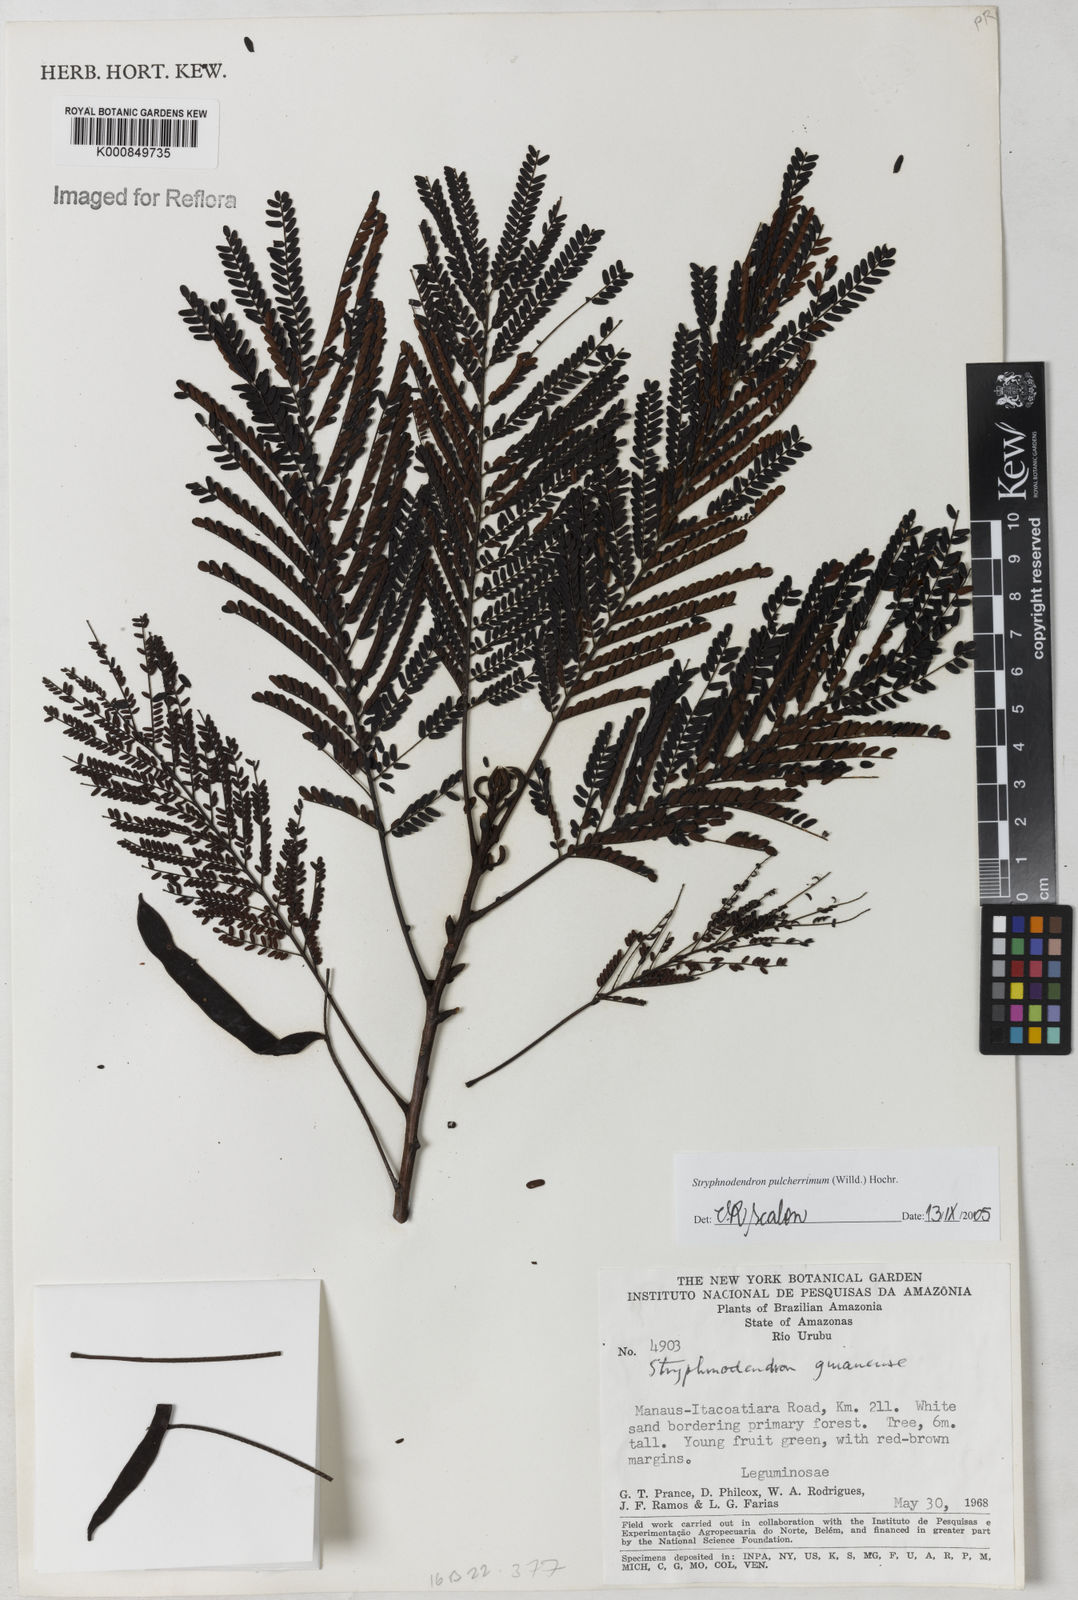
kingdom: Plantae
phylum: Tracheophyta
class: Magnoliopsida
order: Fabales
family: Fabaceae
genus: Stryphnodendron
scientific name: Stryphnodendron pulcherrimum
